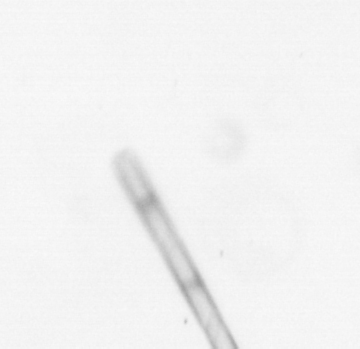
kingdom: Chromista
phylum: Ochrophyta
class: Bacillariophyceae
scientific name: Bacillariophyceae
